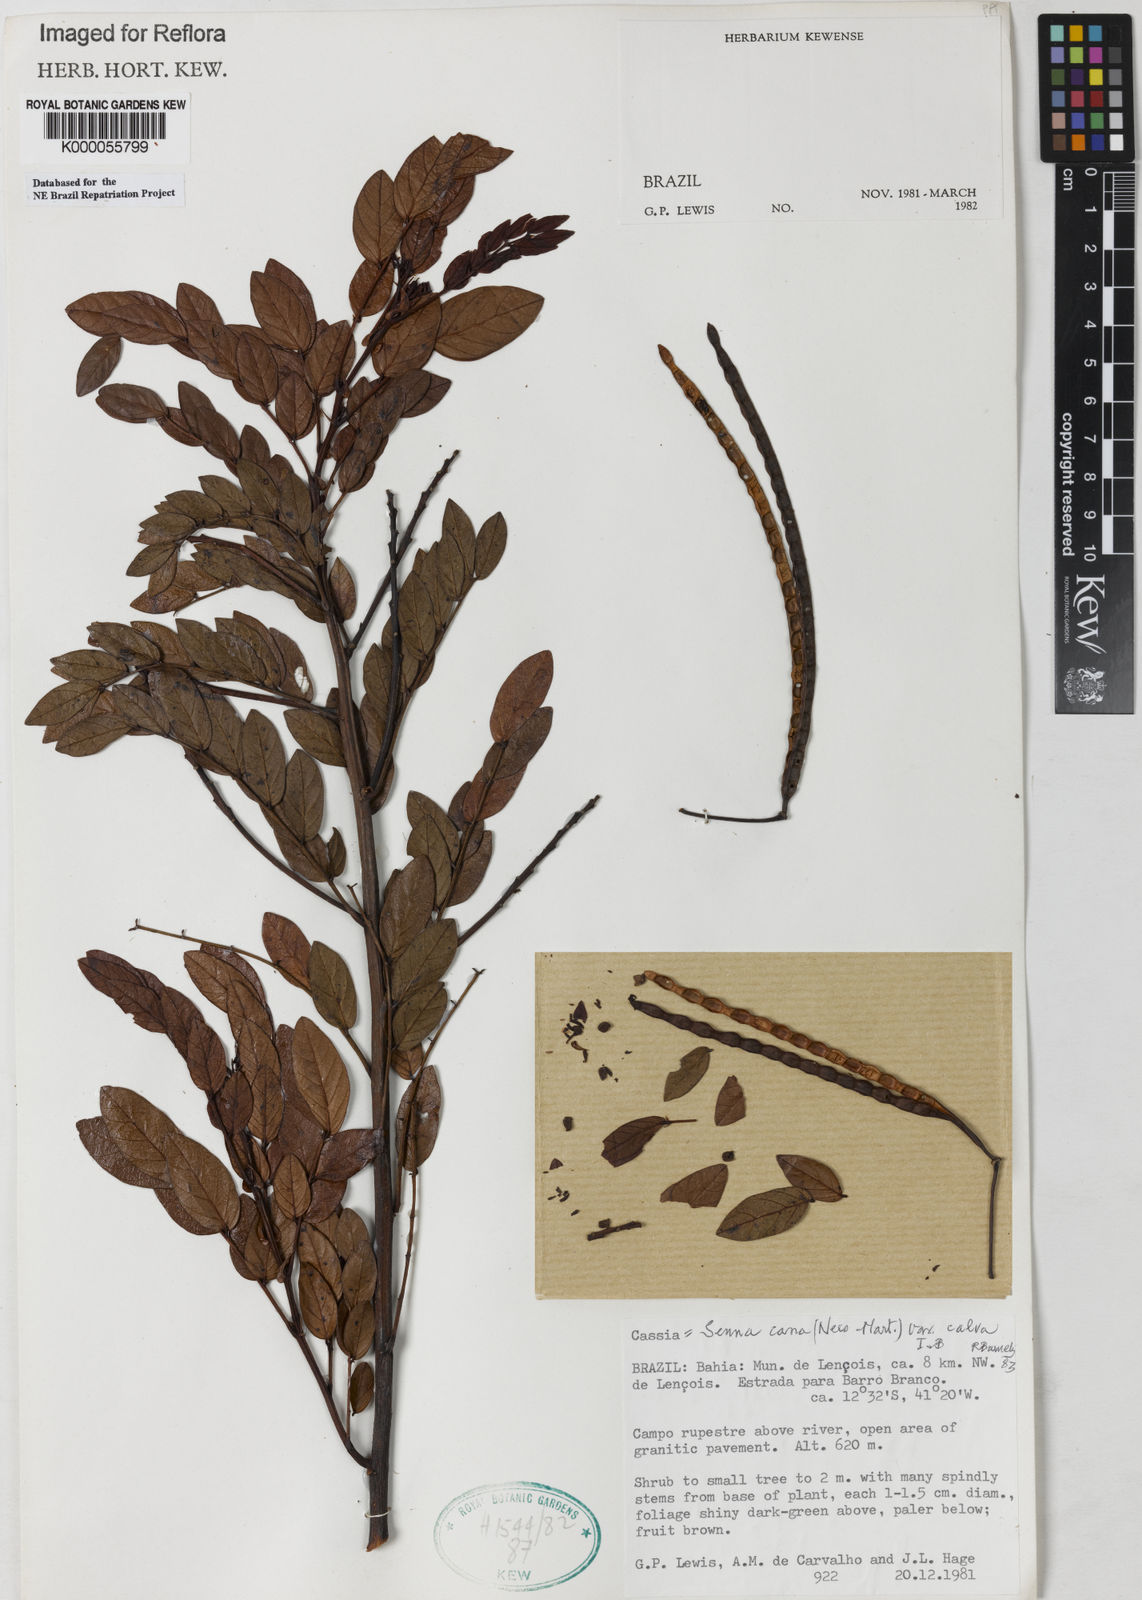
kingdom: Plantae
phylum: Tracheophyta
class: Magnoliopsida
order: Fabales
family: Fabaceae
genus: Senna
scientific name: Senna cana
